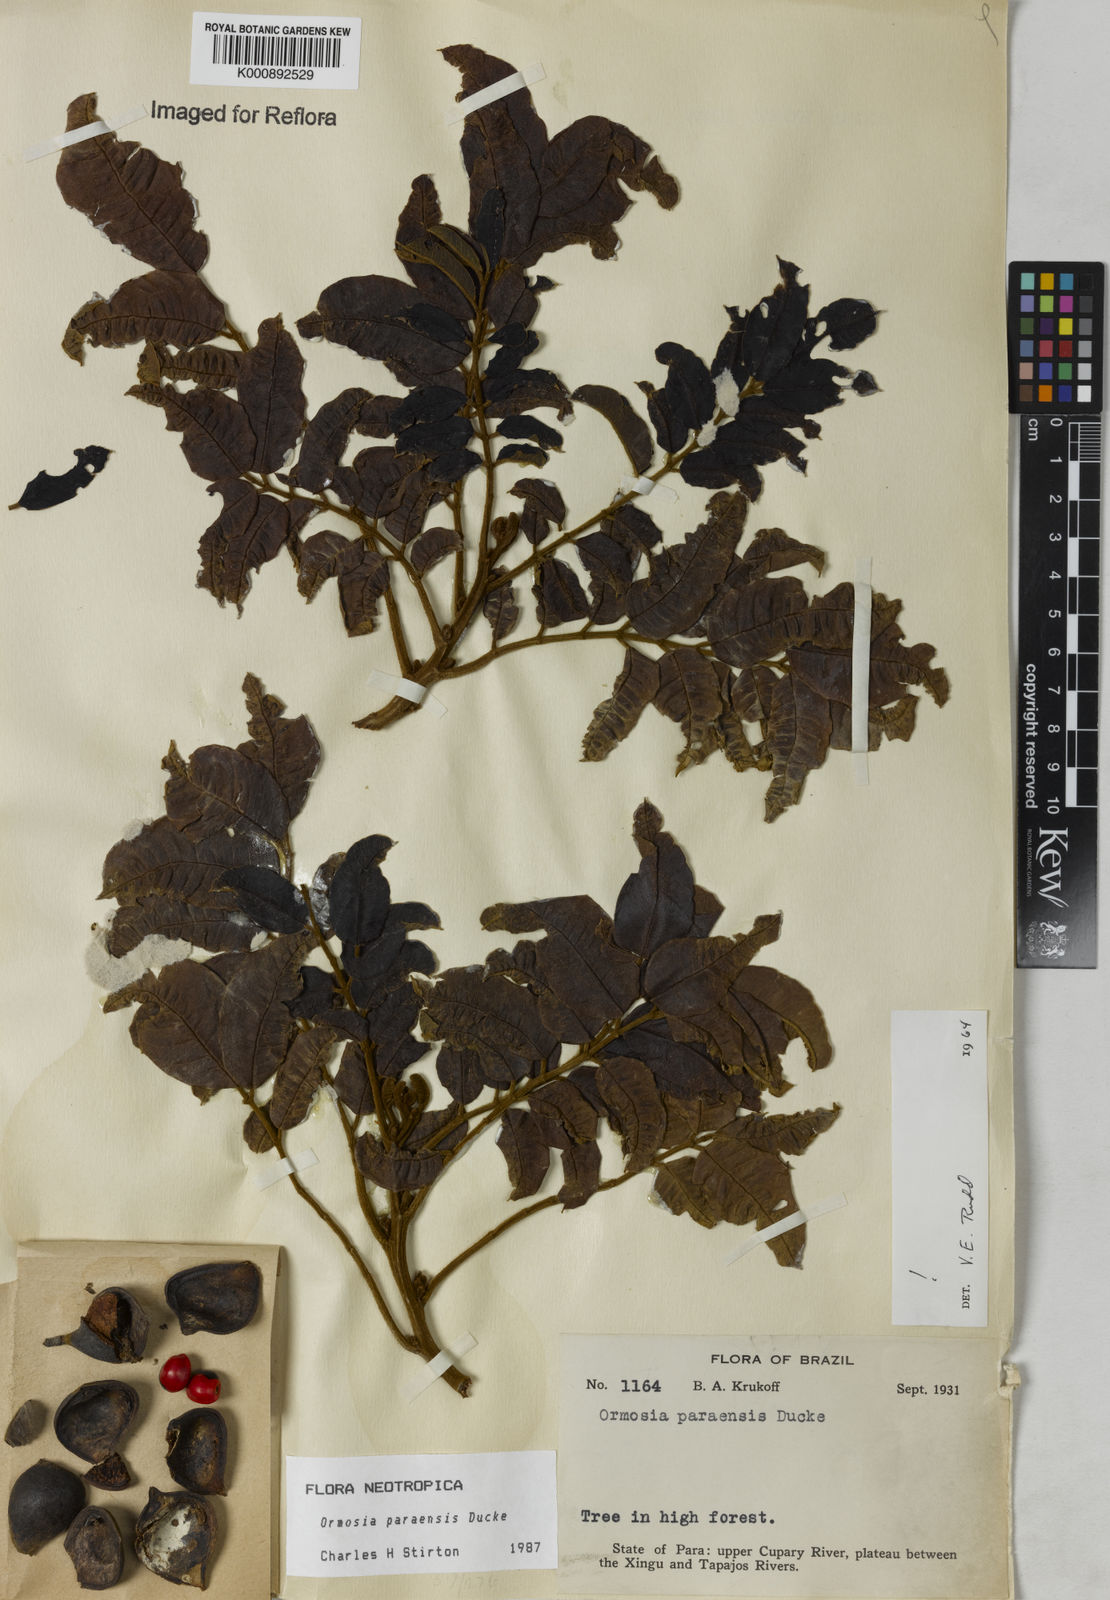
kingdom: Plantae
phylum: Tracheophyta
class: Magnoliopsida
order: Fabales
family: Fabaceae
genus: Ormosia
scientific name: Ormosia paraensis
